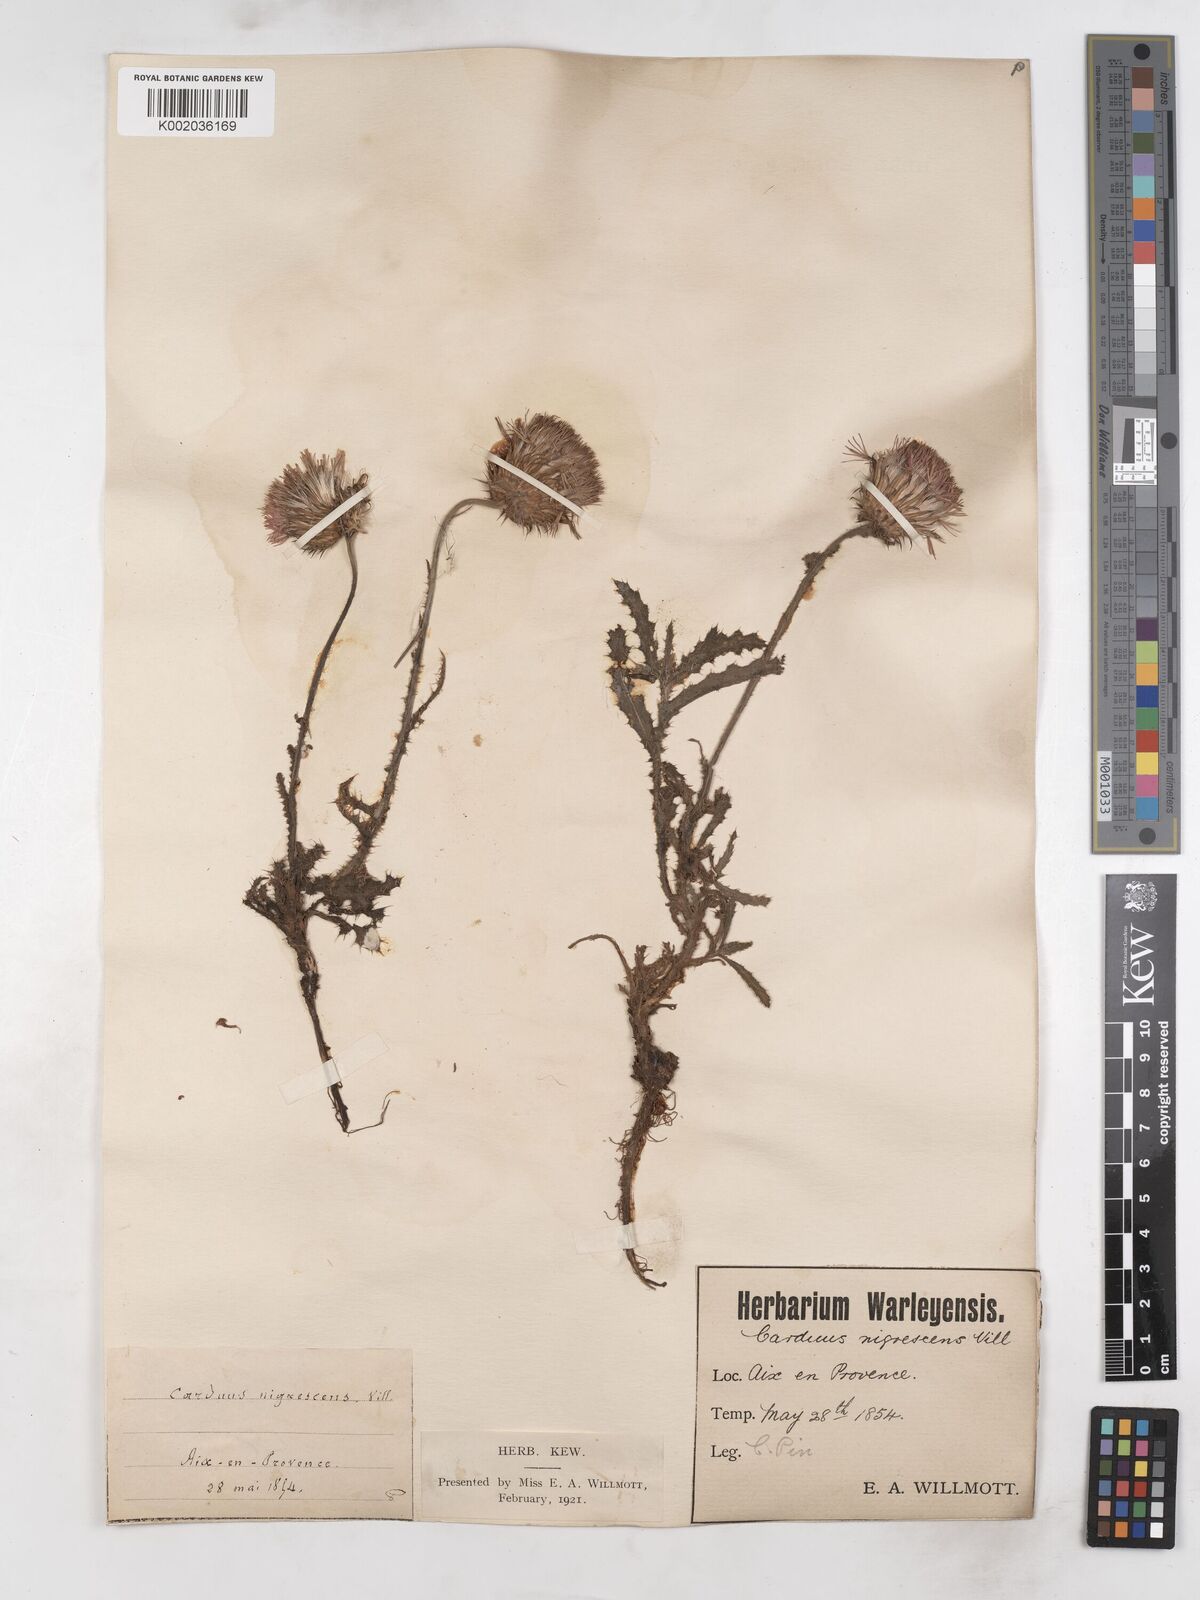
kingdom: Plantae
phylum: Tracheophyta
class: Magnoliopsida
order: Asterales
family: Asteraceae
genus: Carduus
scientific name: Carduus nigrescens
